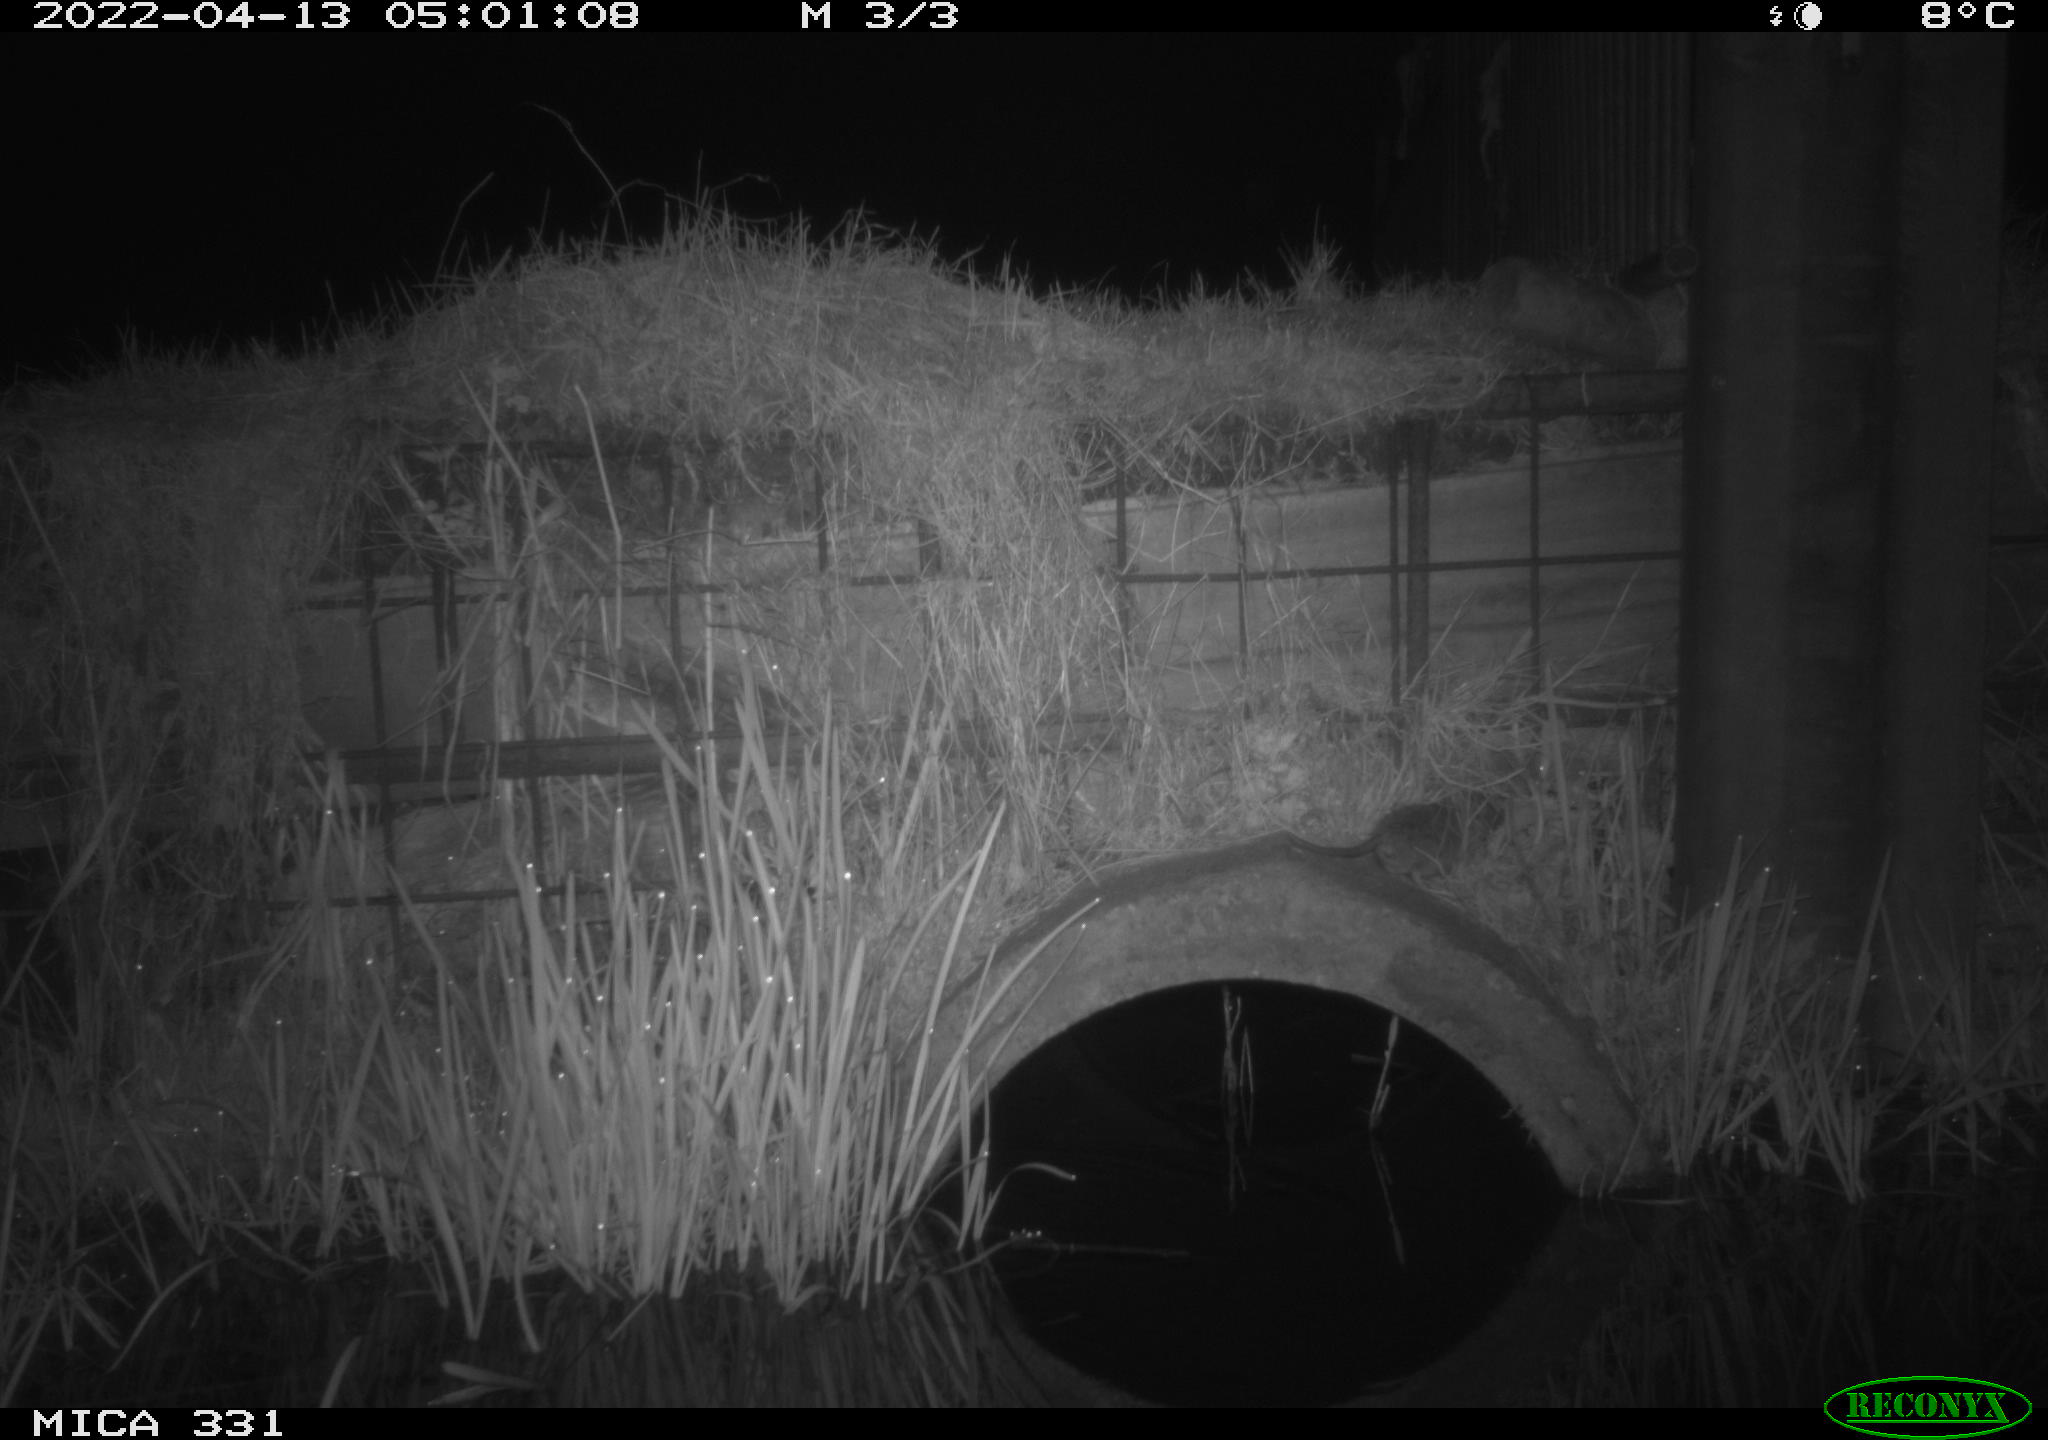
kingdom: Animalia
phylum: Chordata
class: Mammalia
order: Rodentia
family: Muridae
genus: Rattus
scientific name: Rattus norvegicus
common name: Brown rat
